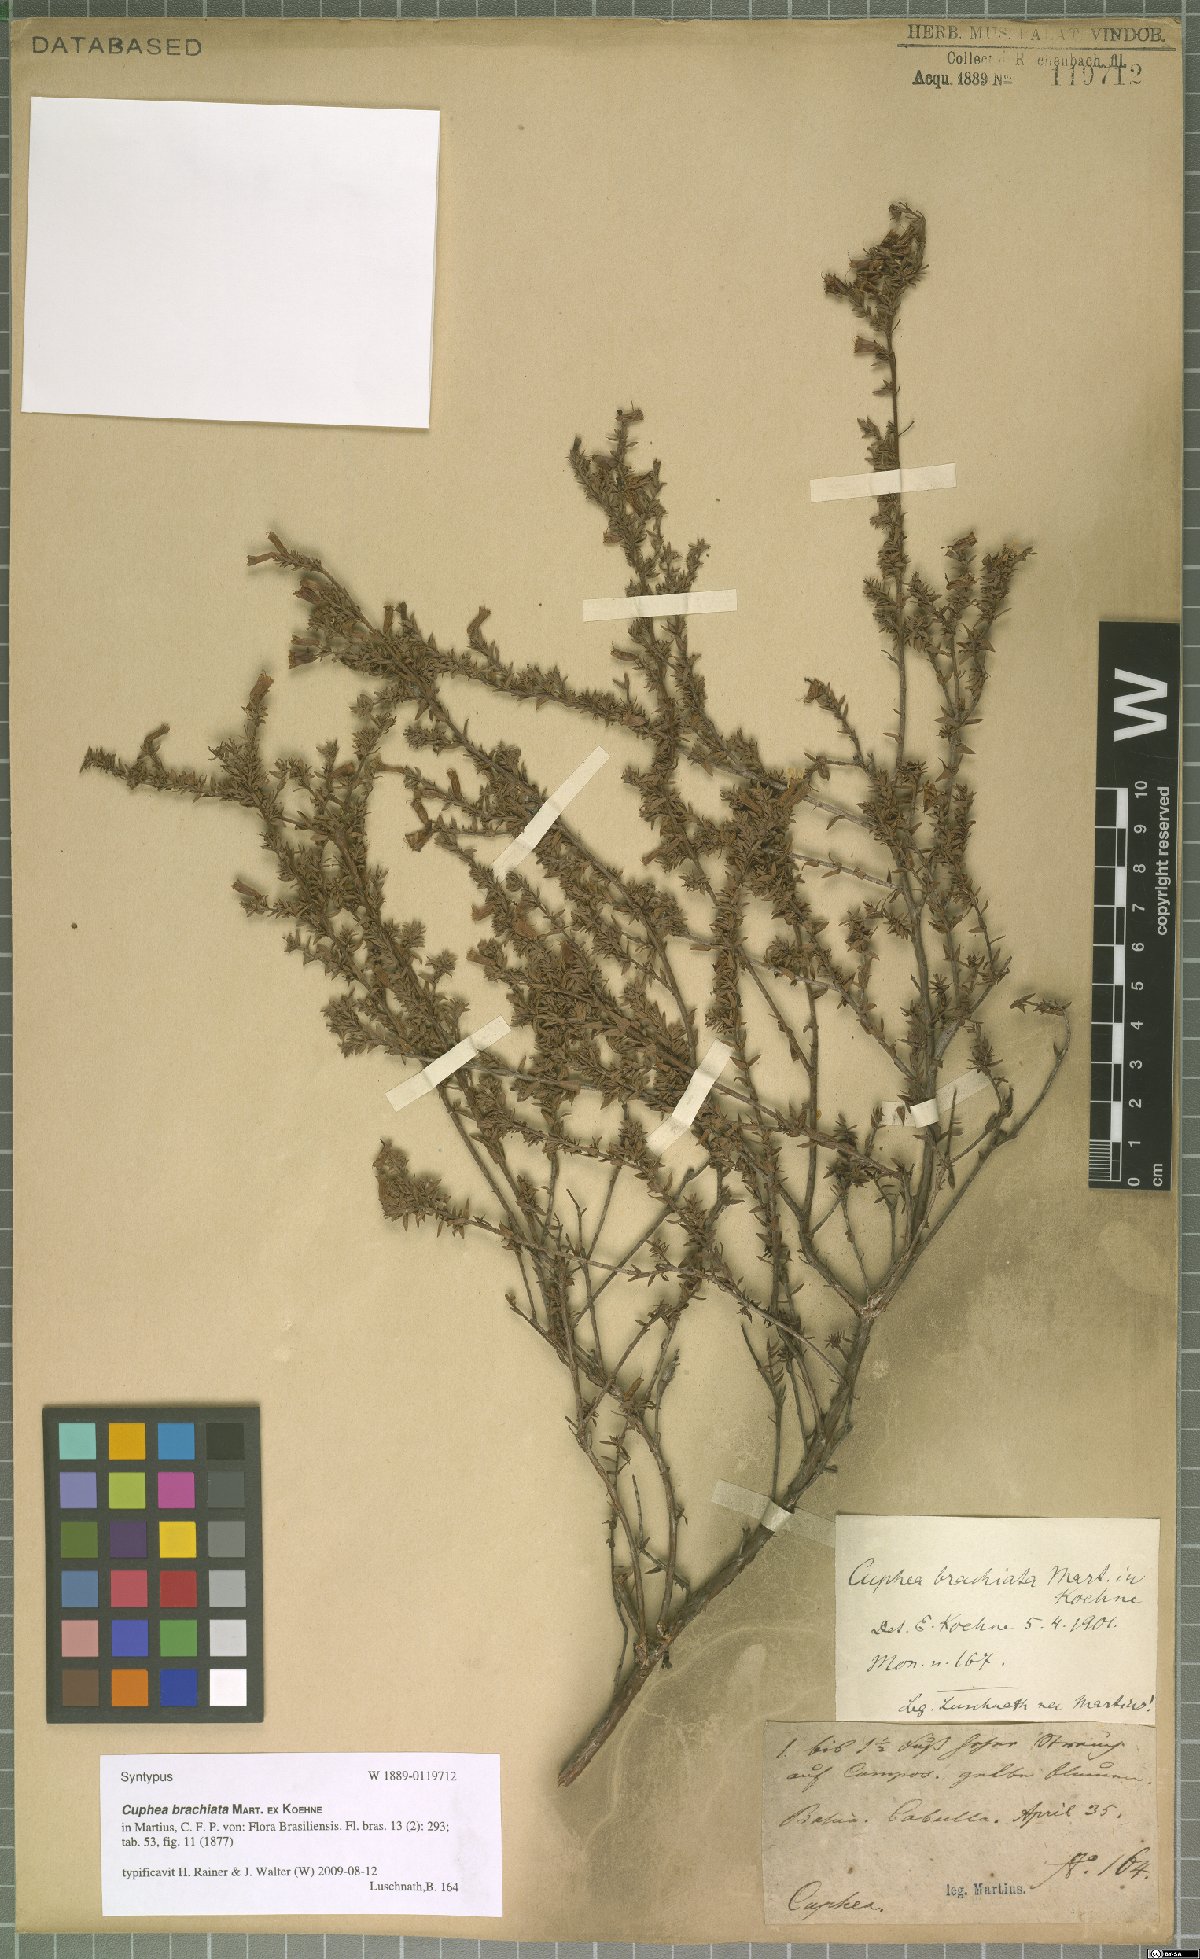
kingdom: Plantae
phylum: Tracheophyta
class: Magnoliopsida
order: Myrtales
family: Lythraceae
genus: Cuphea
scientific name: Cuphea brachiata
